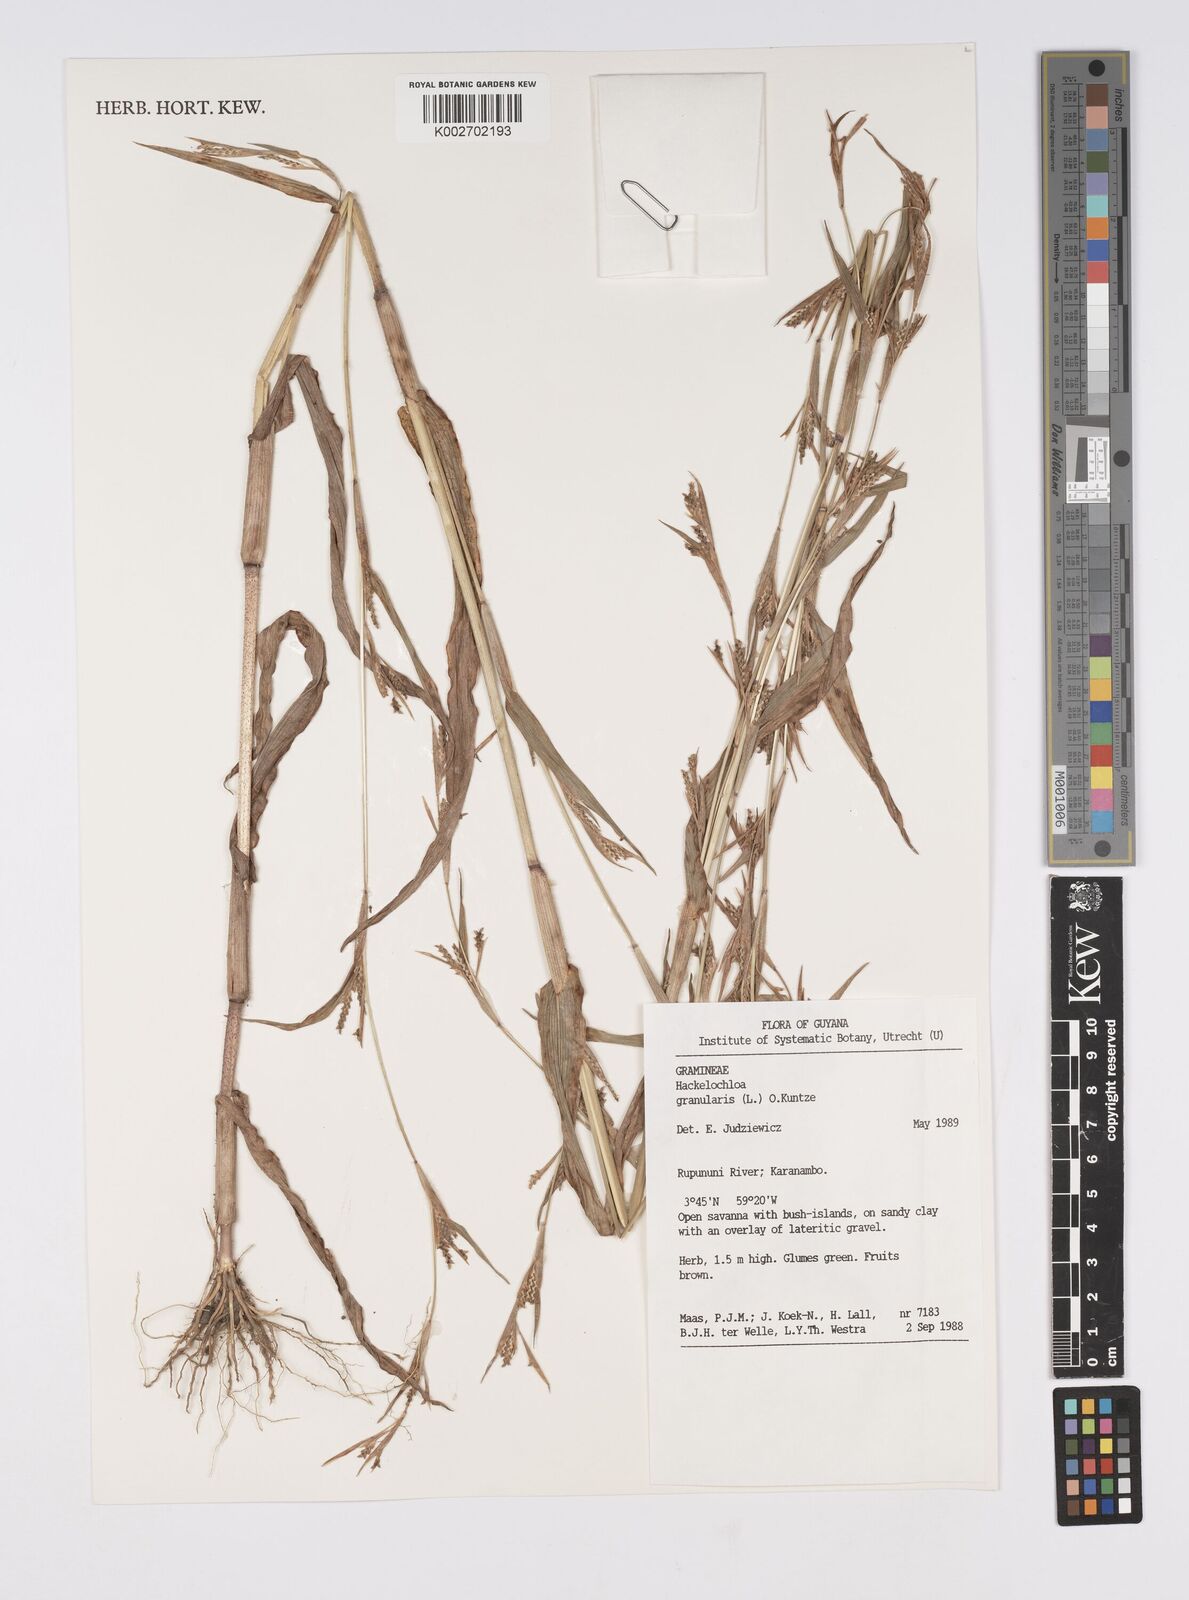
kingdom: Plantae
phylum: Tracheophyta
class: Liliopsida
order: Poales
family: Poaceae
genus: Hackelochloa
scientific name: Hackelochloa granularis
